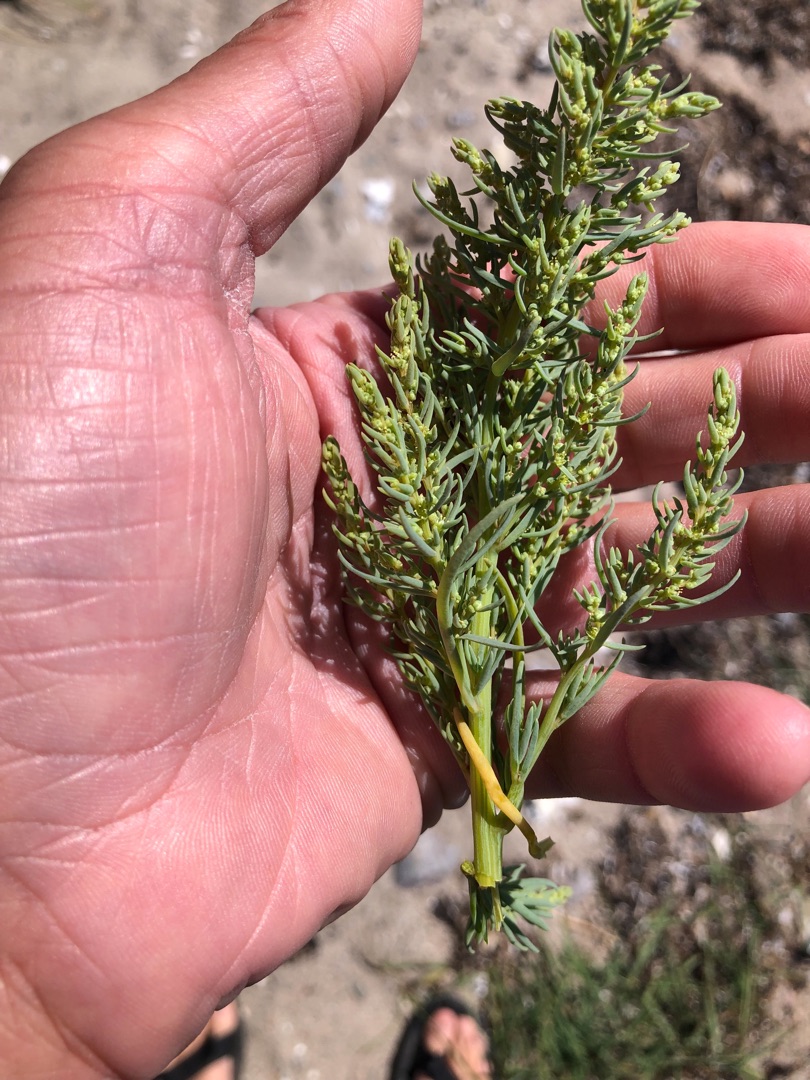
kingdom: Plantae
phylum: Tracheophyta
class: Magnoliopsida
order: Caryophyllales
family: Amaranthaceae
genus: Suaeda
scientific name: Suaeda maritima
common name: Strandgåsefod
